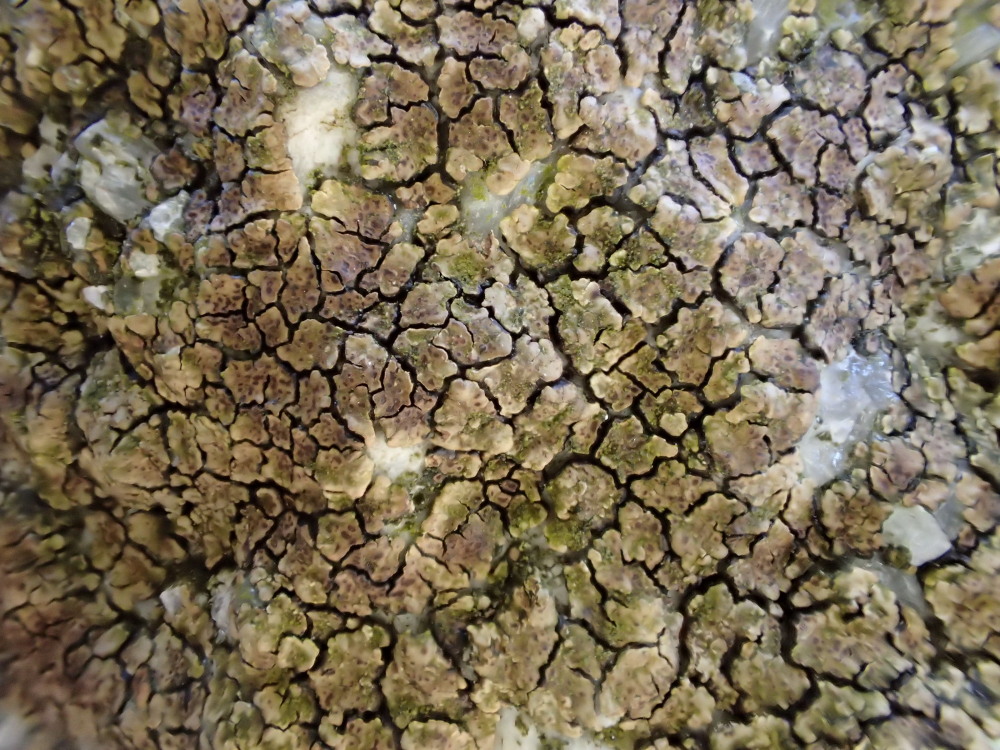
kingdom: Fungi
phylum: Ascomycota
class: Lecanoromycetes
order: Acarosporales
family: Acarosporaceae
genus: Acarospora
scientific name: Acarospora fuscata
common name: brun småsporelav
